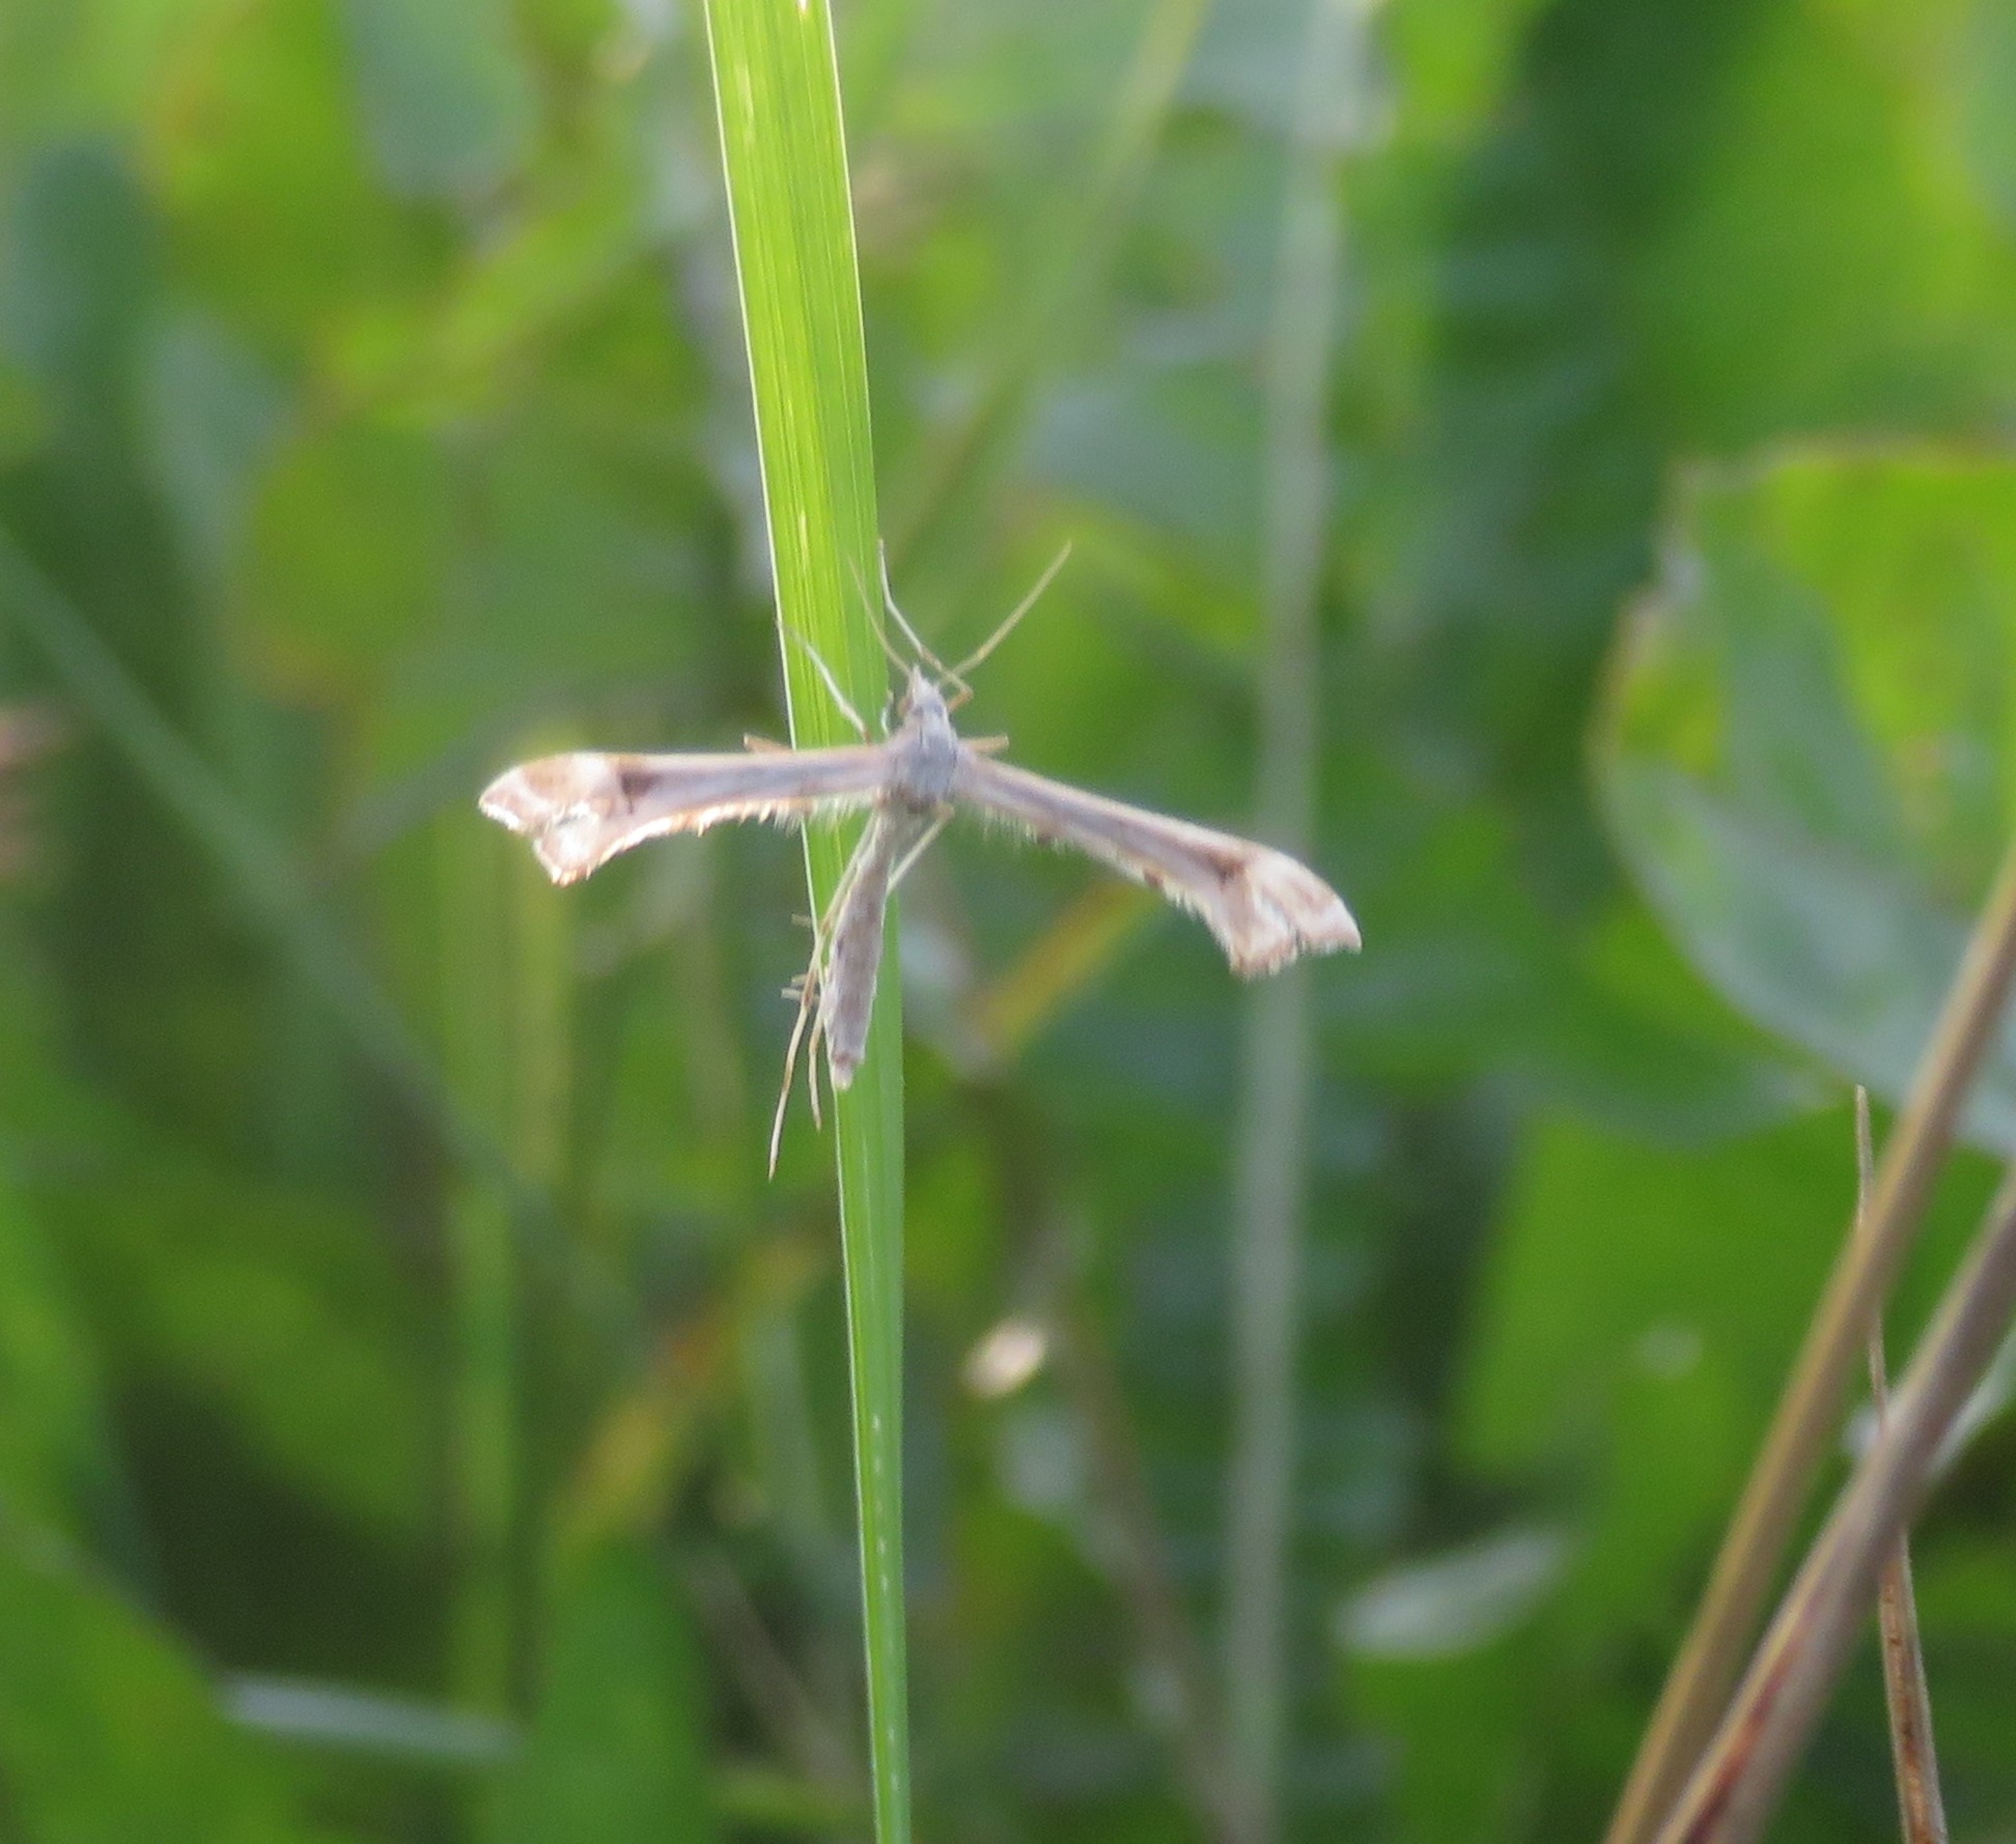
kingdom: Animalia
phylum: Arthropoda
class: Insecta
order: Lepidoptera
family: Pterophoridae
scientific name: Pterophoridae
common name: Fjermøl
